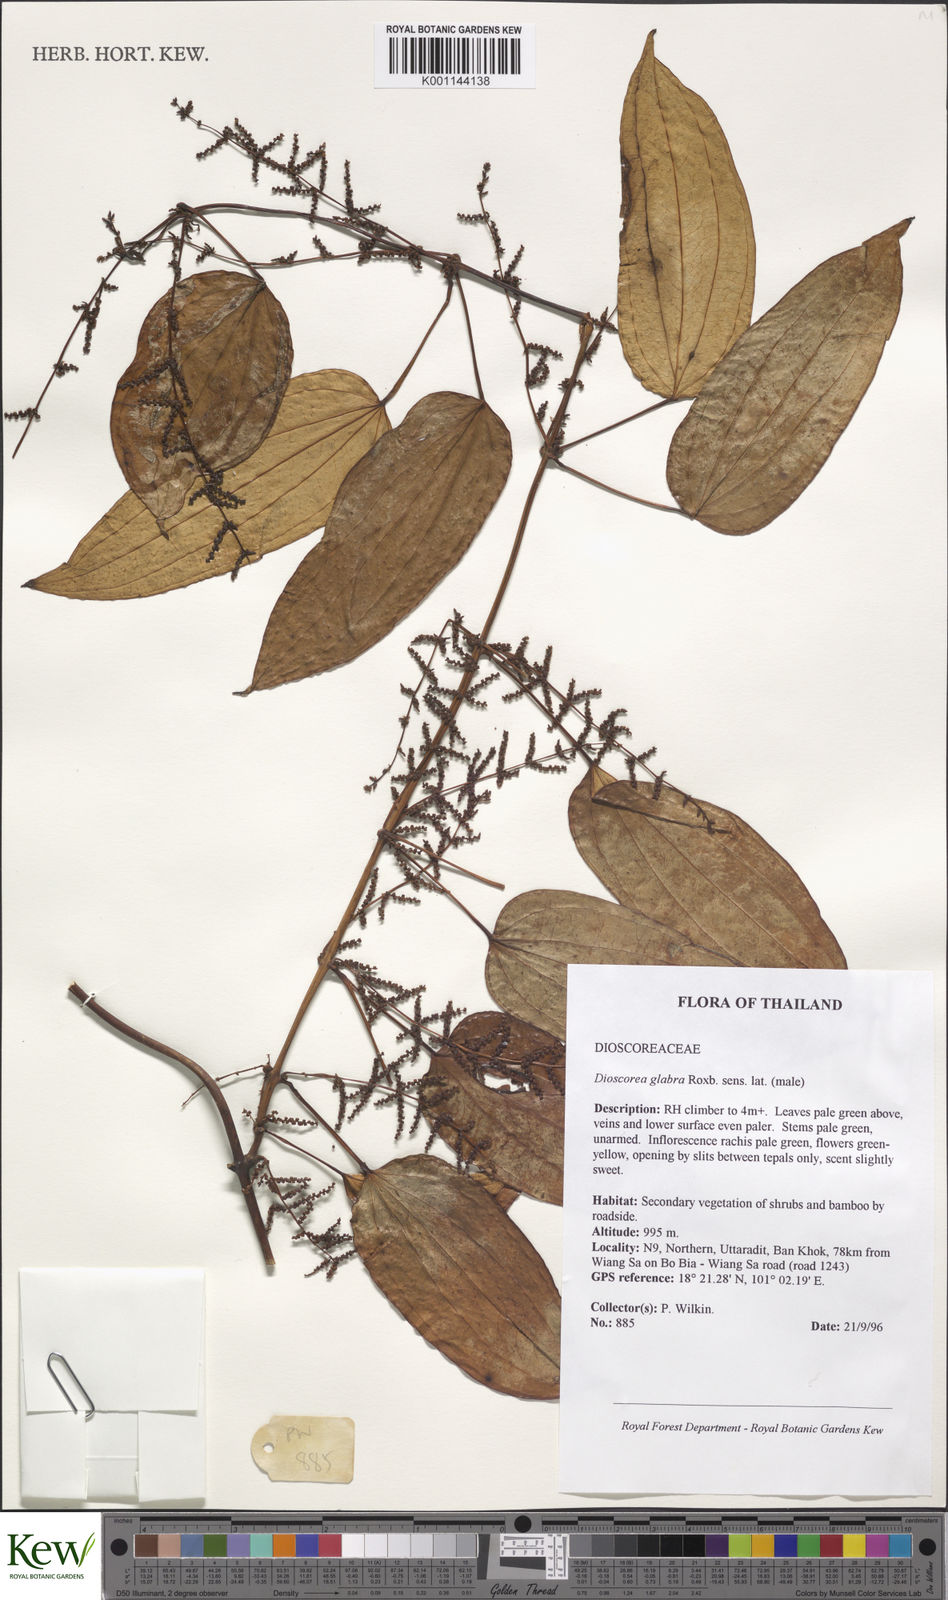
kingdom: Plantae
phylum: Tracheophyta
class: Liliopsida
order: Dioscoreales
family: Dioscoreaceae
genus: Dioscorea
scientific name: Dioscorea glabra
